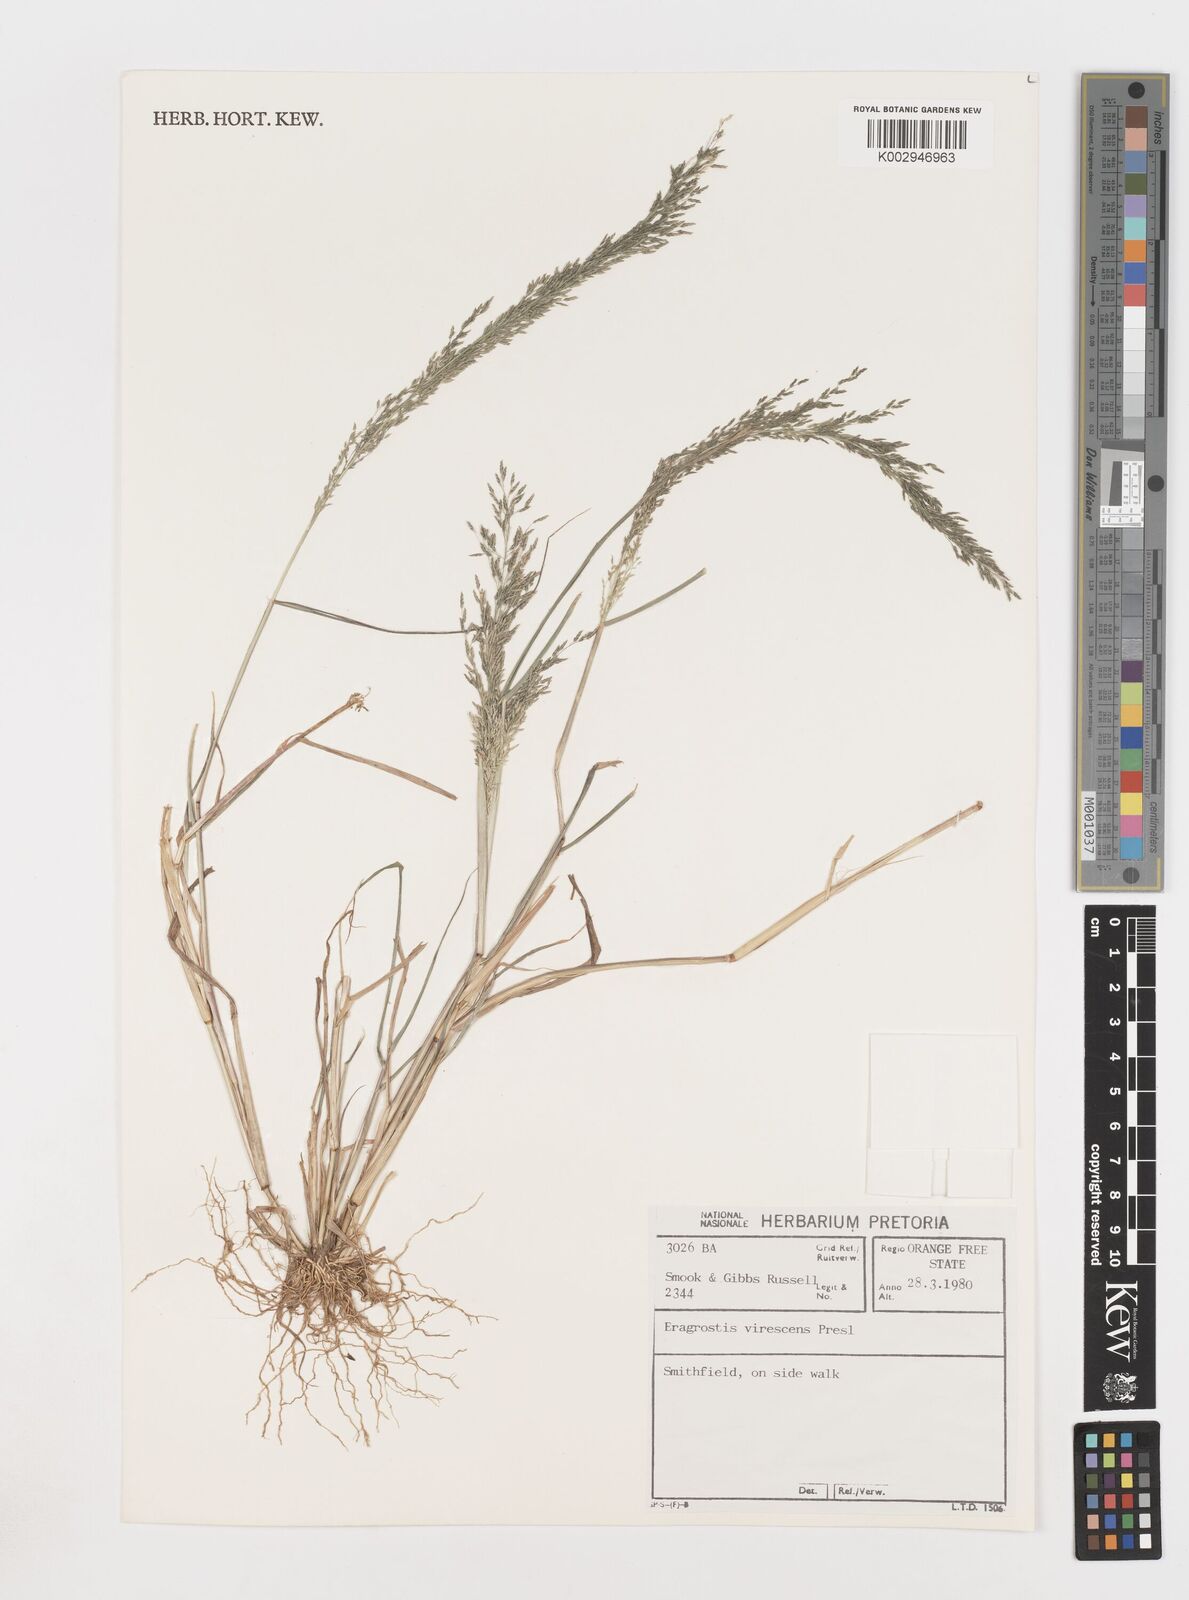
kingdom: Plantae
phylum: Tracheophyta
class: Liliopsida
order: Poales
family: Poaceae
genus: Eragrostis
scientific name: Eragrostis
